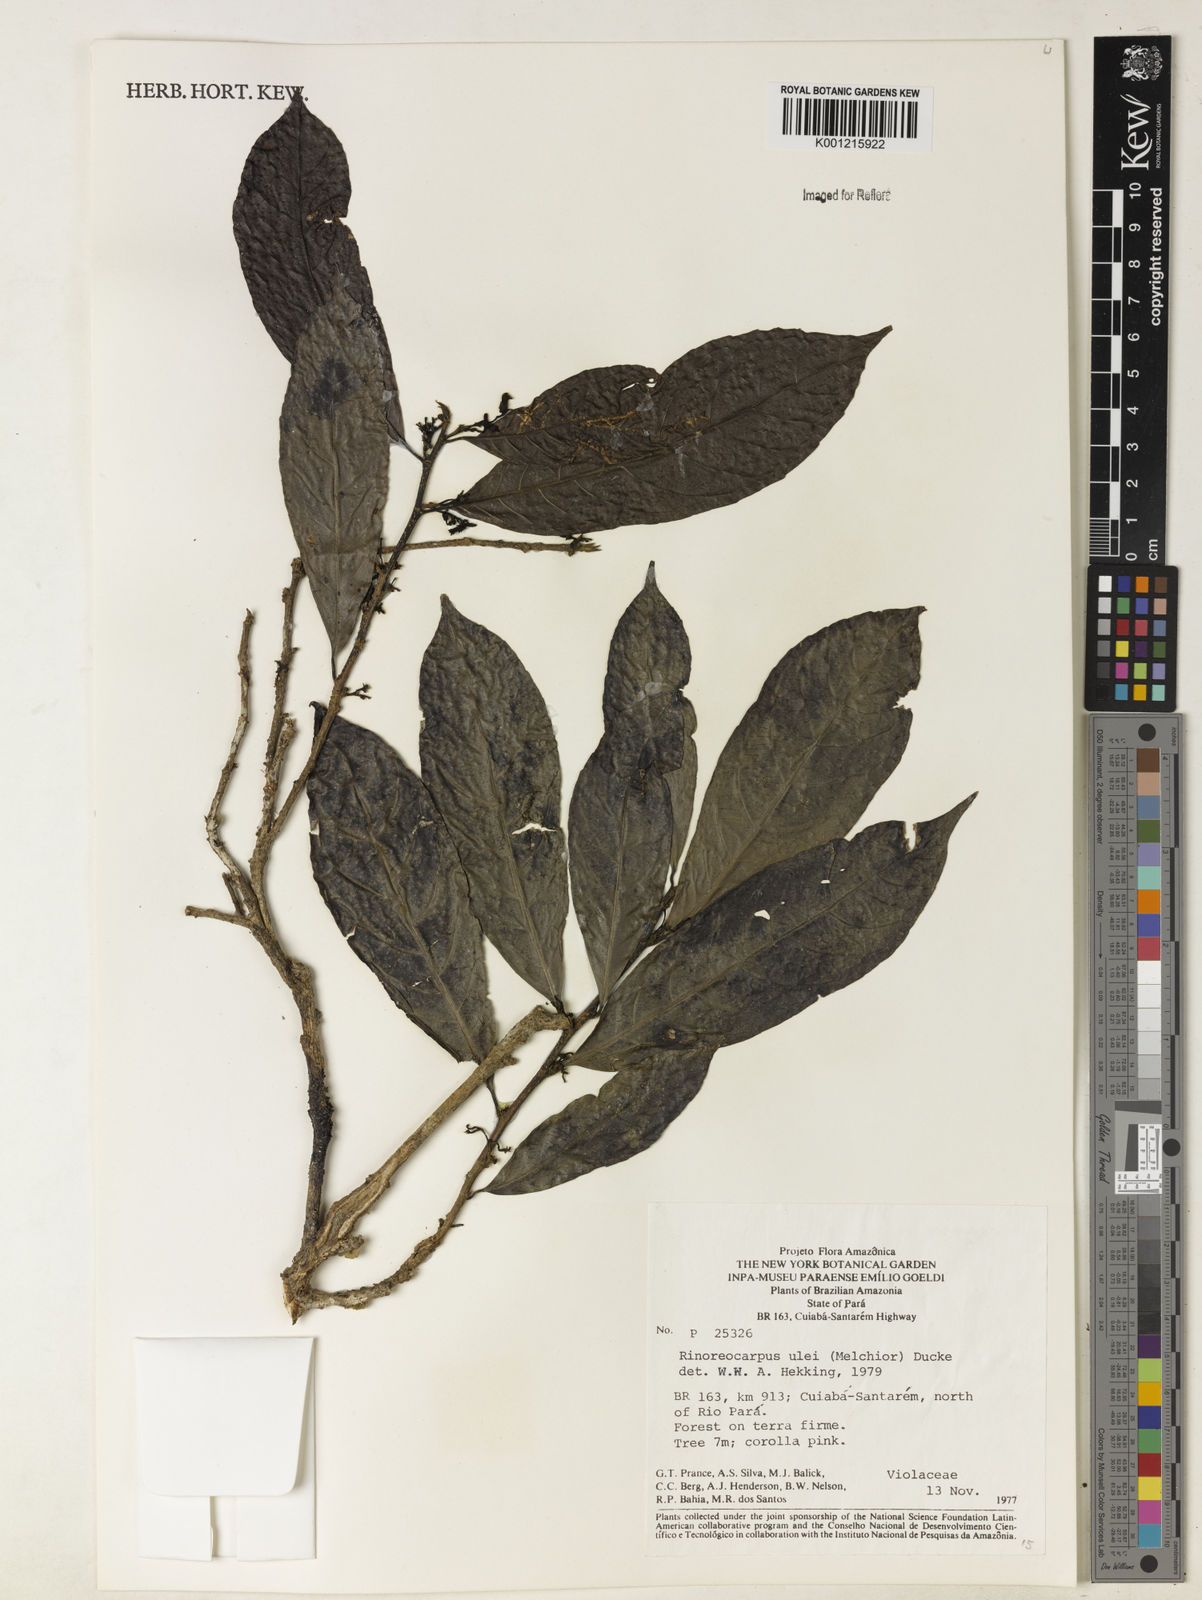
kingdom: Plantae
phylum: Tracheophyta
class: Magnoliopsida
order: Malpighiales
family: Violaceae
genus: Rinorea
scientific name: Rinorea
